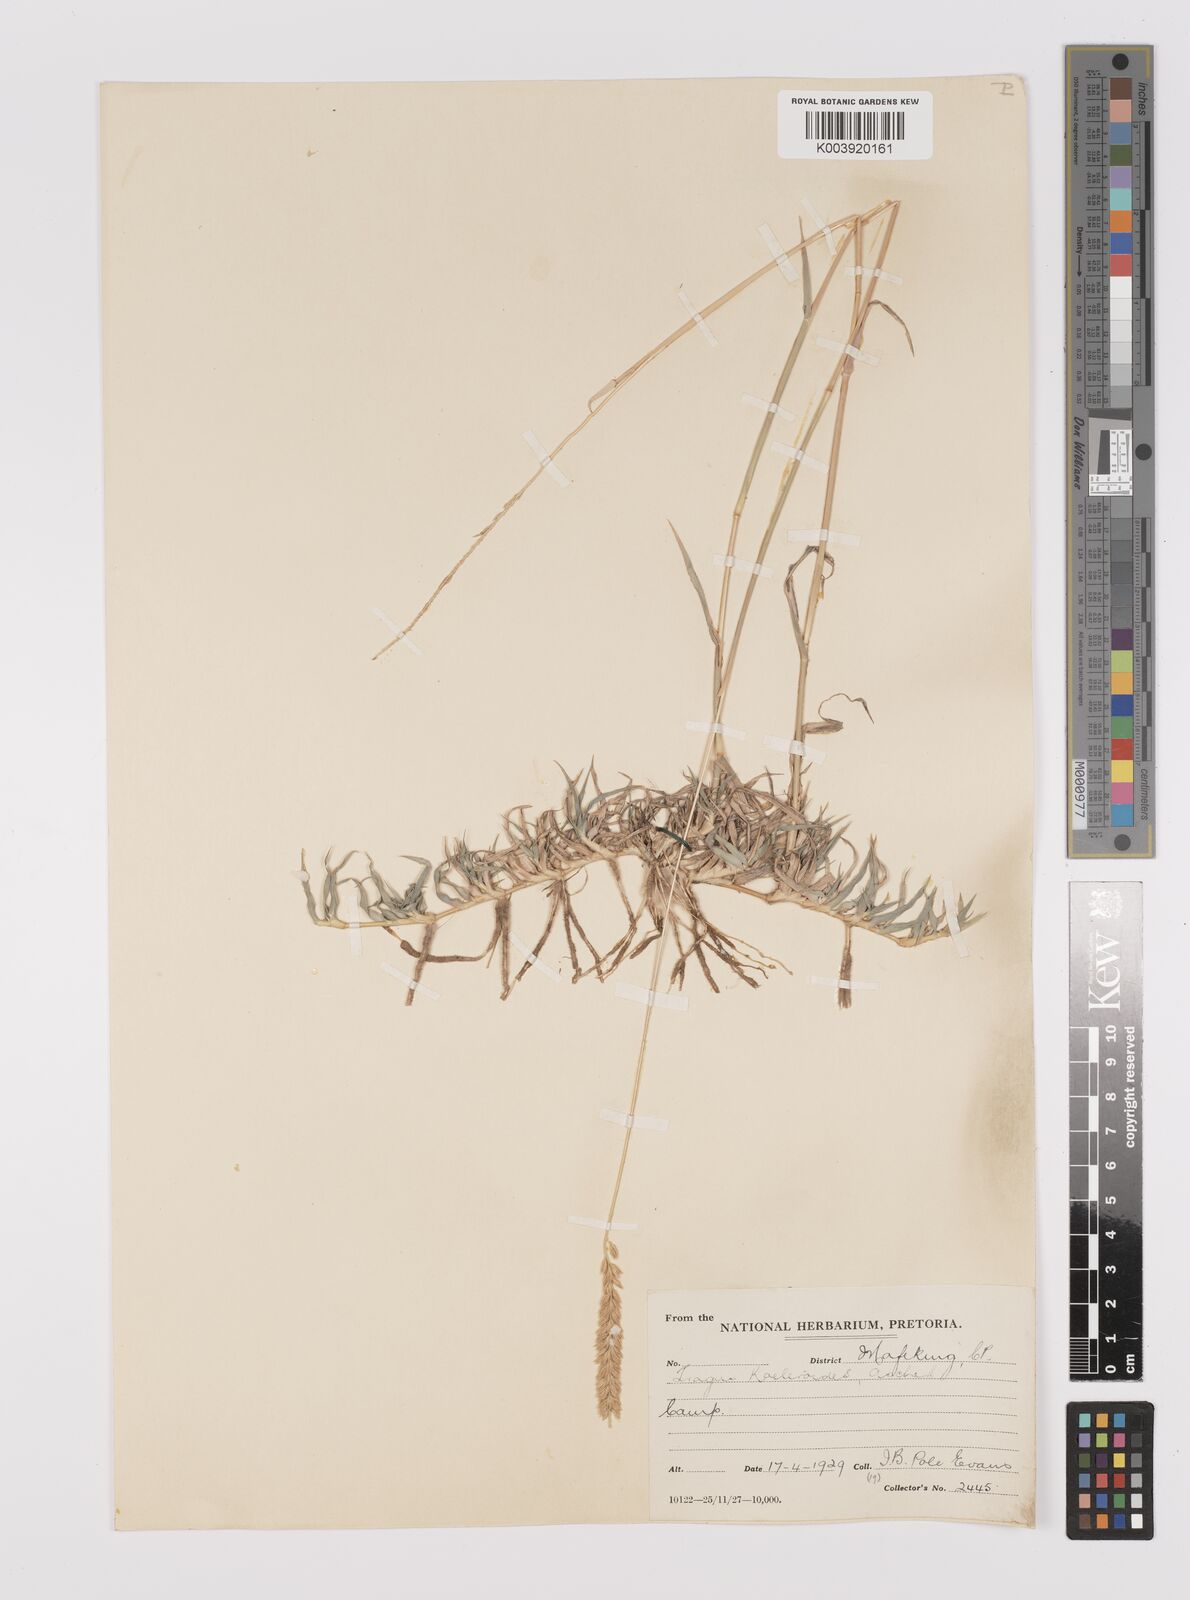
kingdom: Plantae
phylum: Tracheophyta
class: Liliopsida
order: Poales
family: Poaceae
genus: Tragus
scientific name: Tragus koelerioides
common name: Creeping carrot-seed grass
